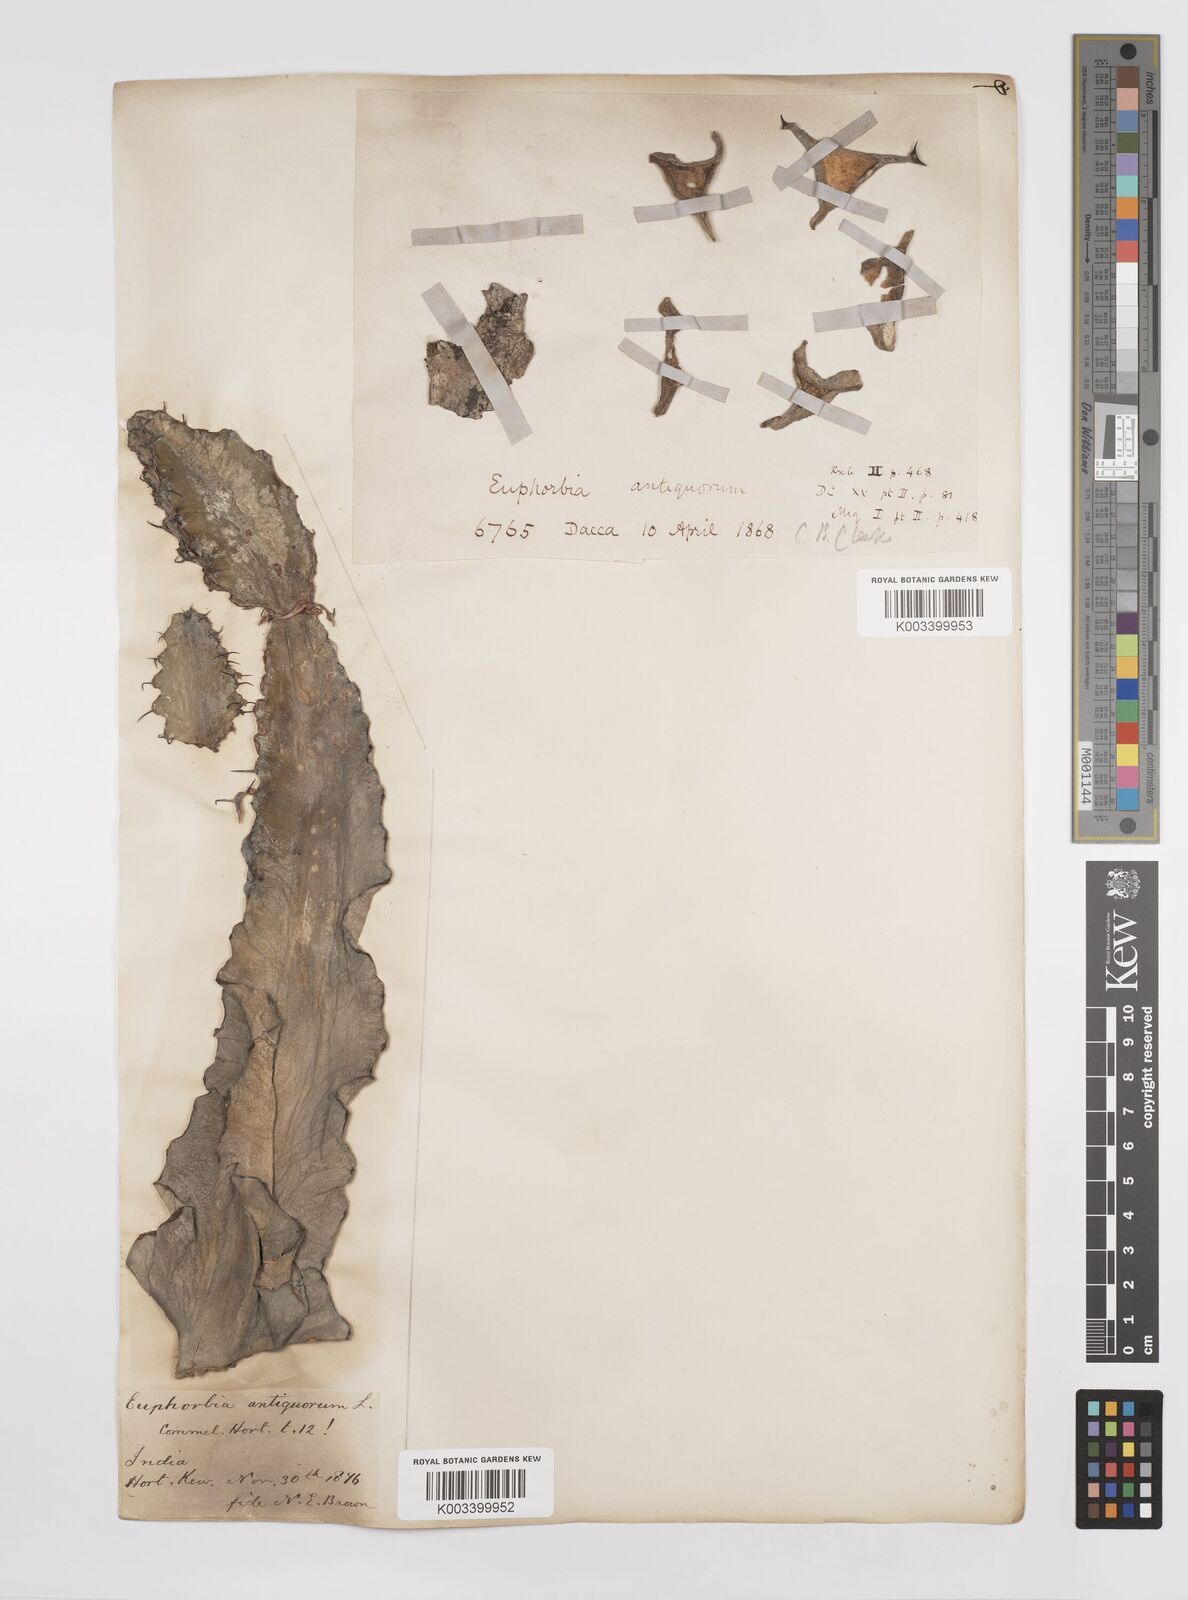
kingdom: Plantae
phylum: Tracheophyta
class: Magnoliopsida
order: Malpighiales
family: Euphorbiaceae
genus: Euphorbia
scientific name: Euphorbia antiquorum
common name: Malayan spurge tree
